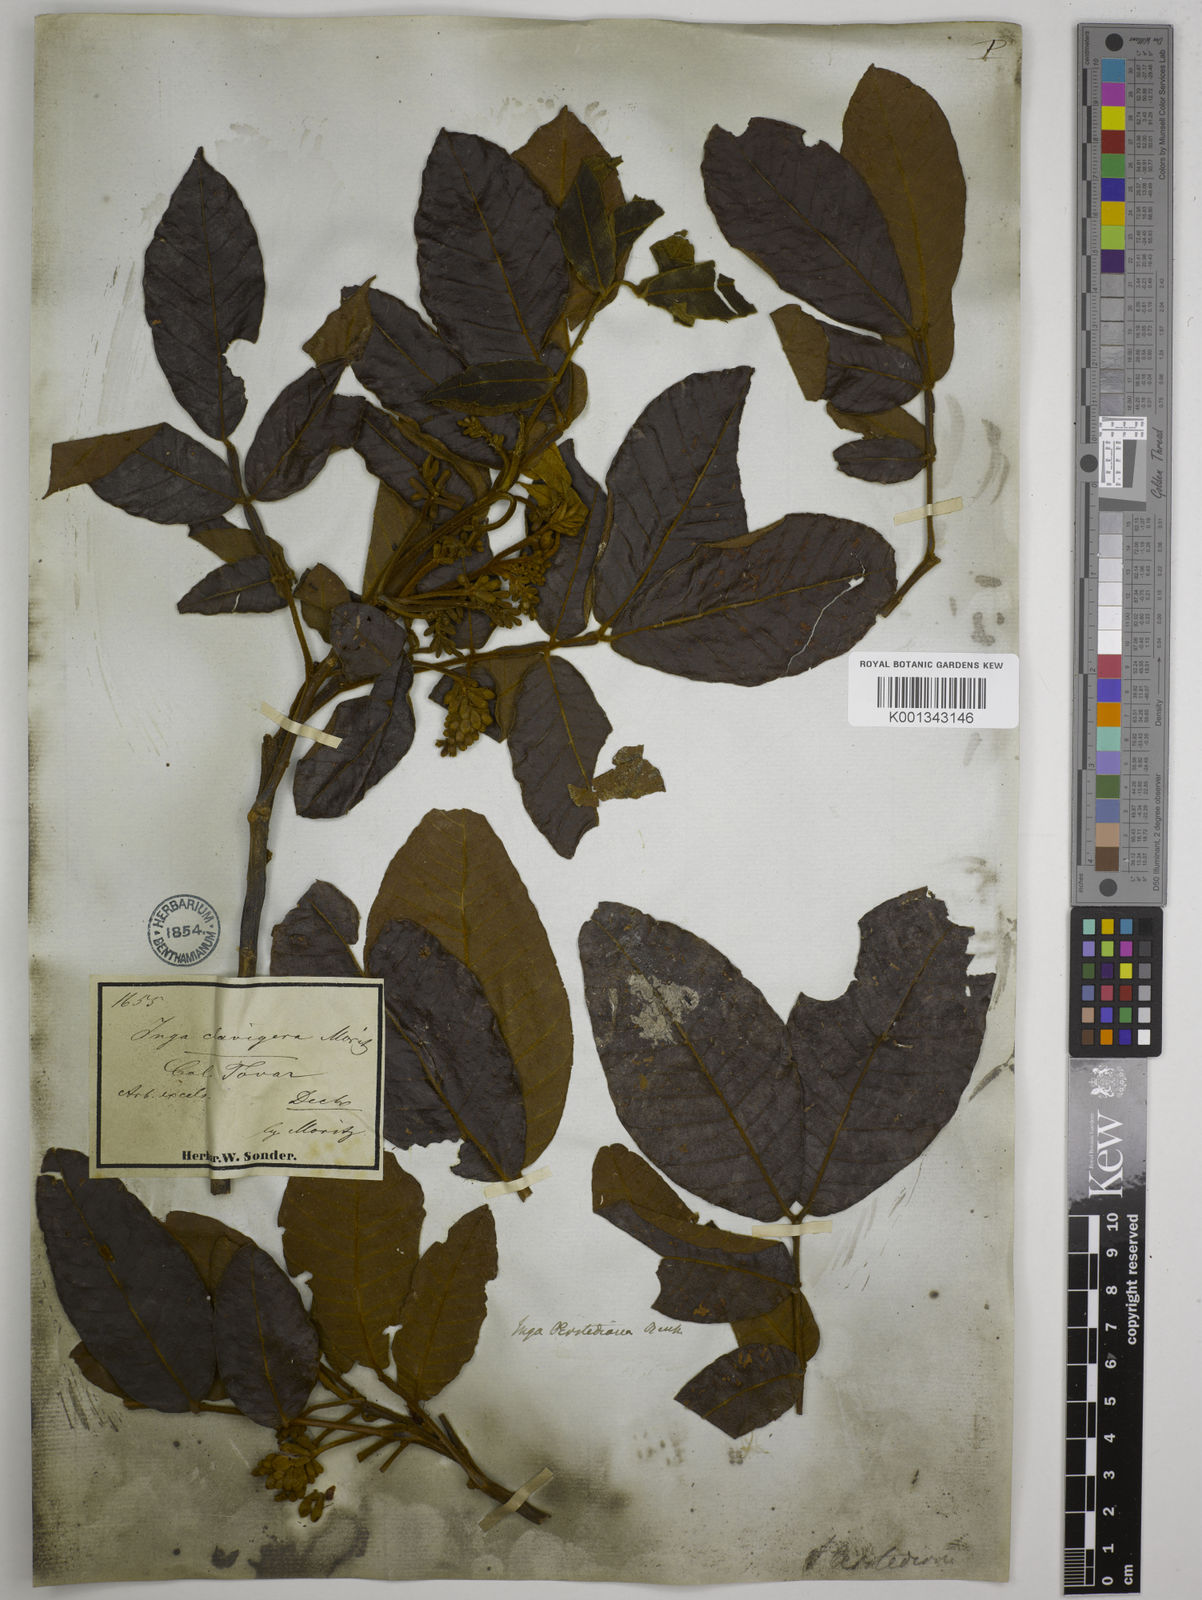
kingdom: Plantae
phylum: Tracheophyta
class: Magnoliopsida
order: Fabales
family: Fabaceae
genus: Inga
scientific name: Inga oerstediana
